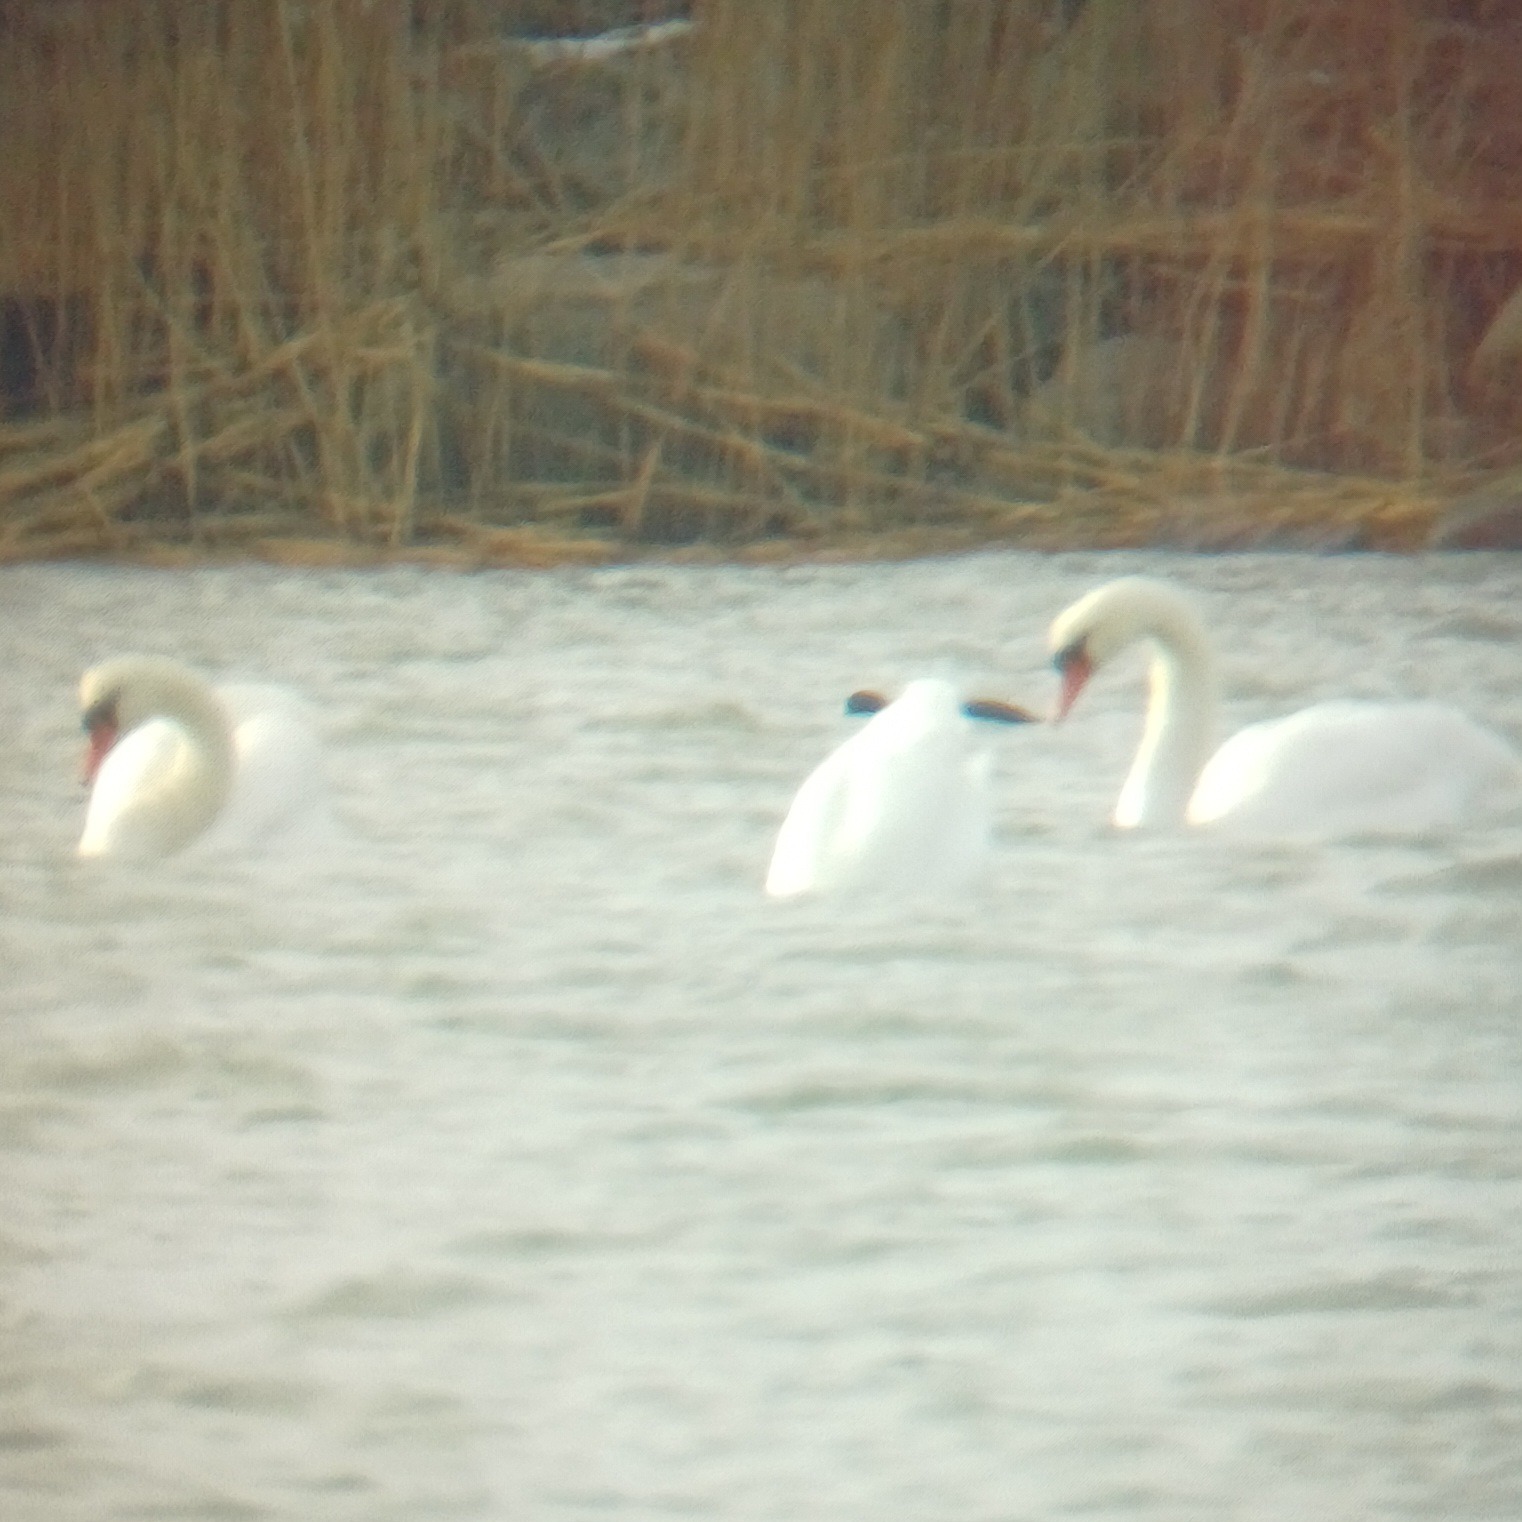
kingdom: Animalia
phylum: Chordata
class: Aves
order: Anseriformes
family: Anatidae
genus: Cygnus
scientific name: Cygnus olor
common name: Knopsvane
